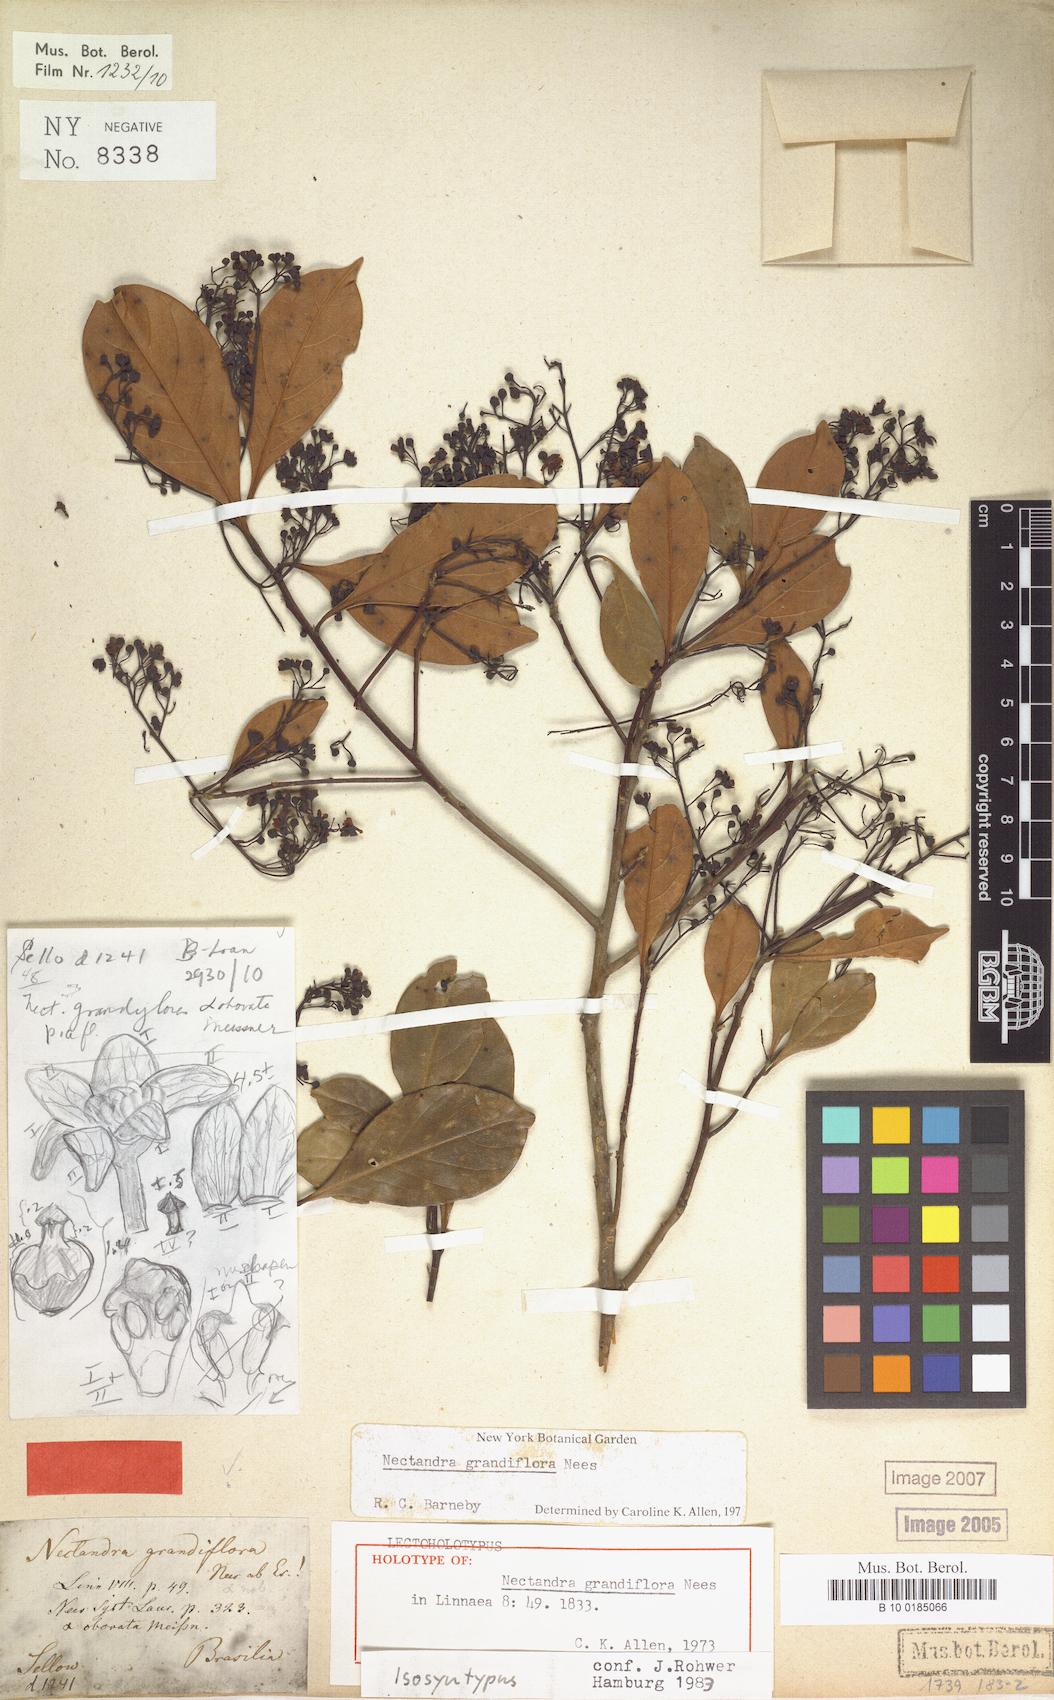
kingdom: Plantae
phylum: Tracheophyta
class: Magnoliopsida
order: Laurales
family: Lauraceae
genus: Nectandra
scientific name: Nectandra grandiflora
